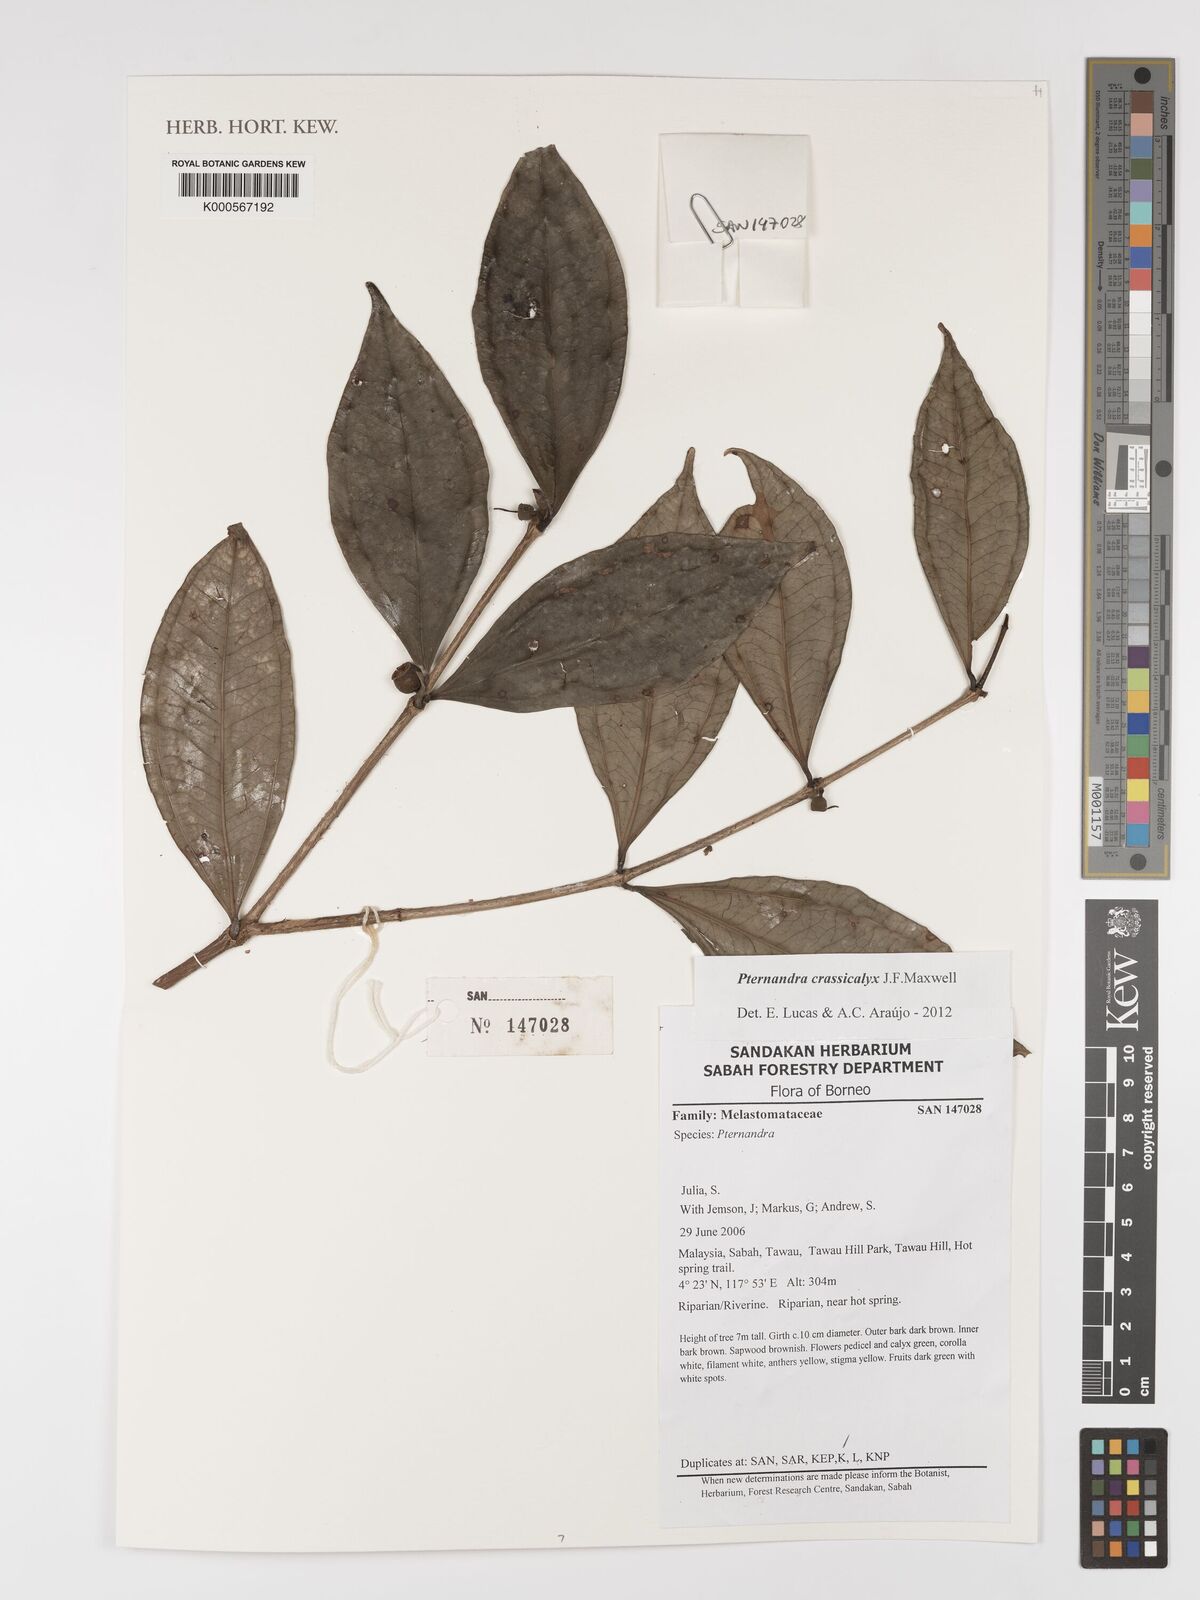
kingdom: Plantae
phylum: Tracheophyta
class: Magnoliopsida
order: Myrtales
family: Melastomataceae
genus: Pternandra
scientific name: Pternandra crassicalyx
